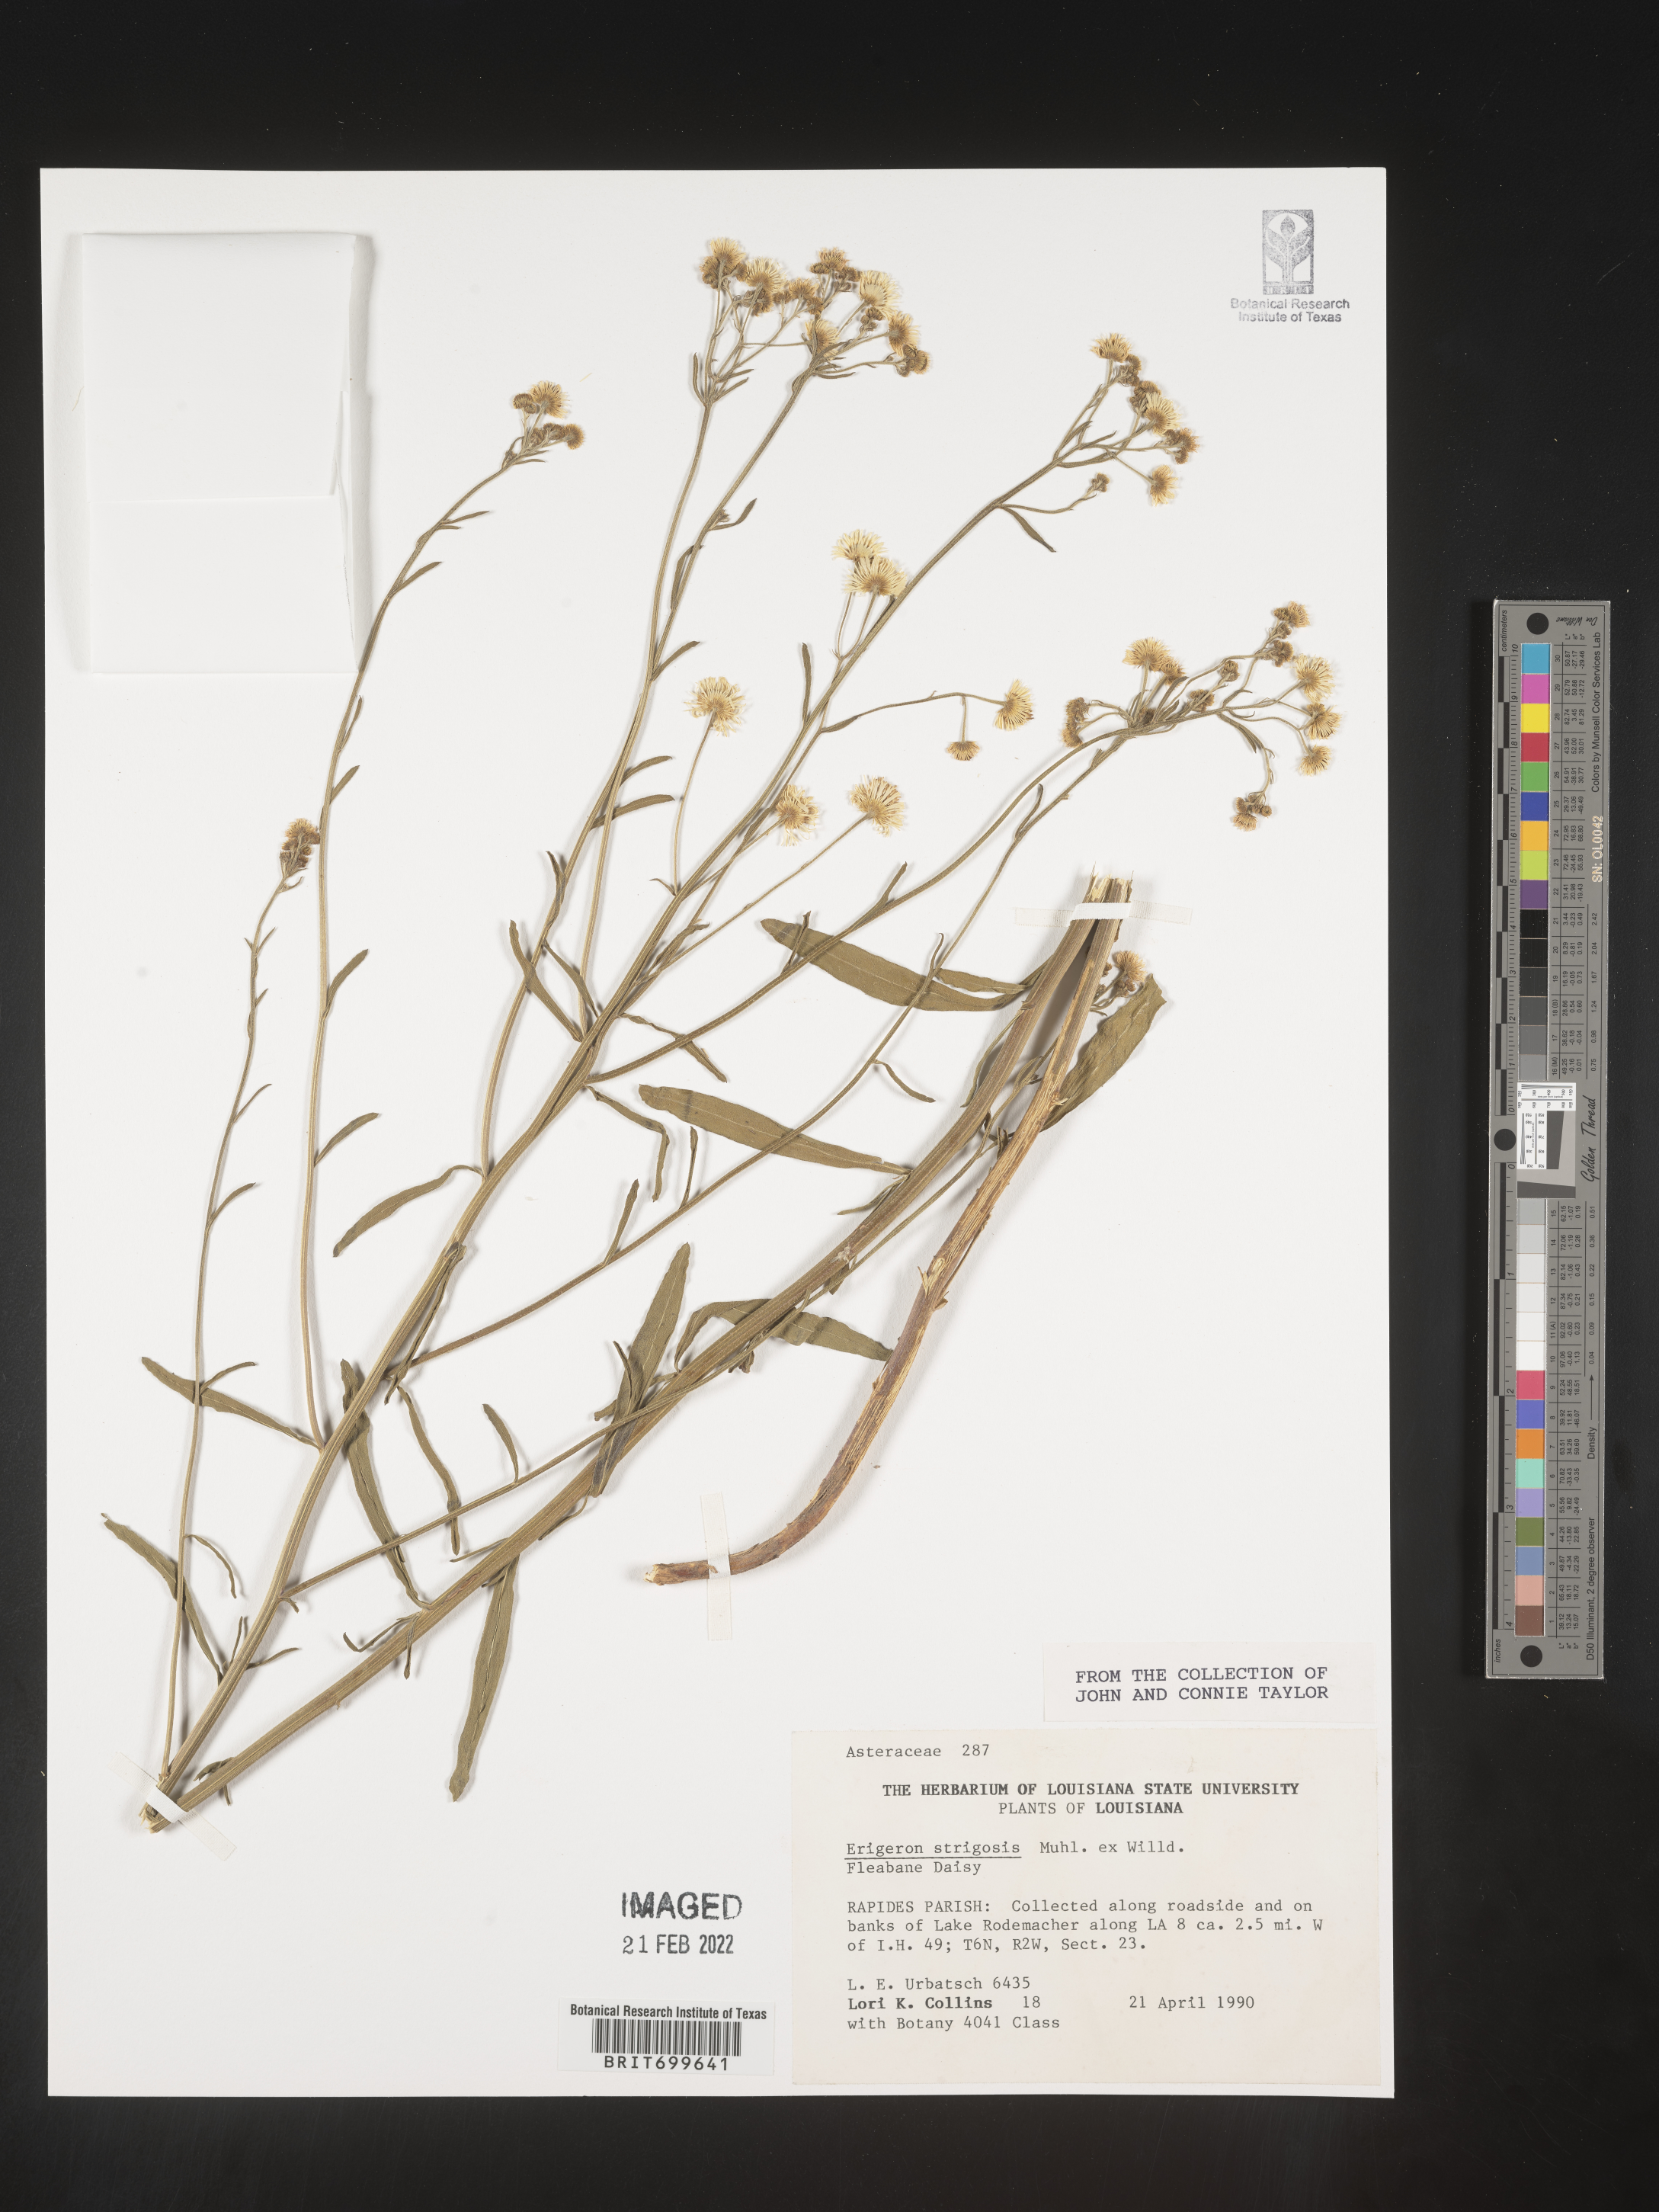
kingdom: Plantae
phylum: Tracheophyta
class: Magnoliopsida
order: Asterales
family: Asteraceae
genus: Erigeron
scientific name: Erigeron strigosus
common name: Common eastern fleabane
